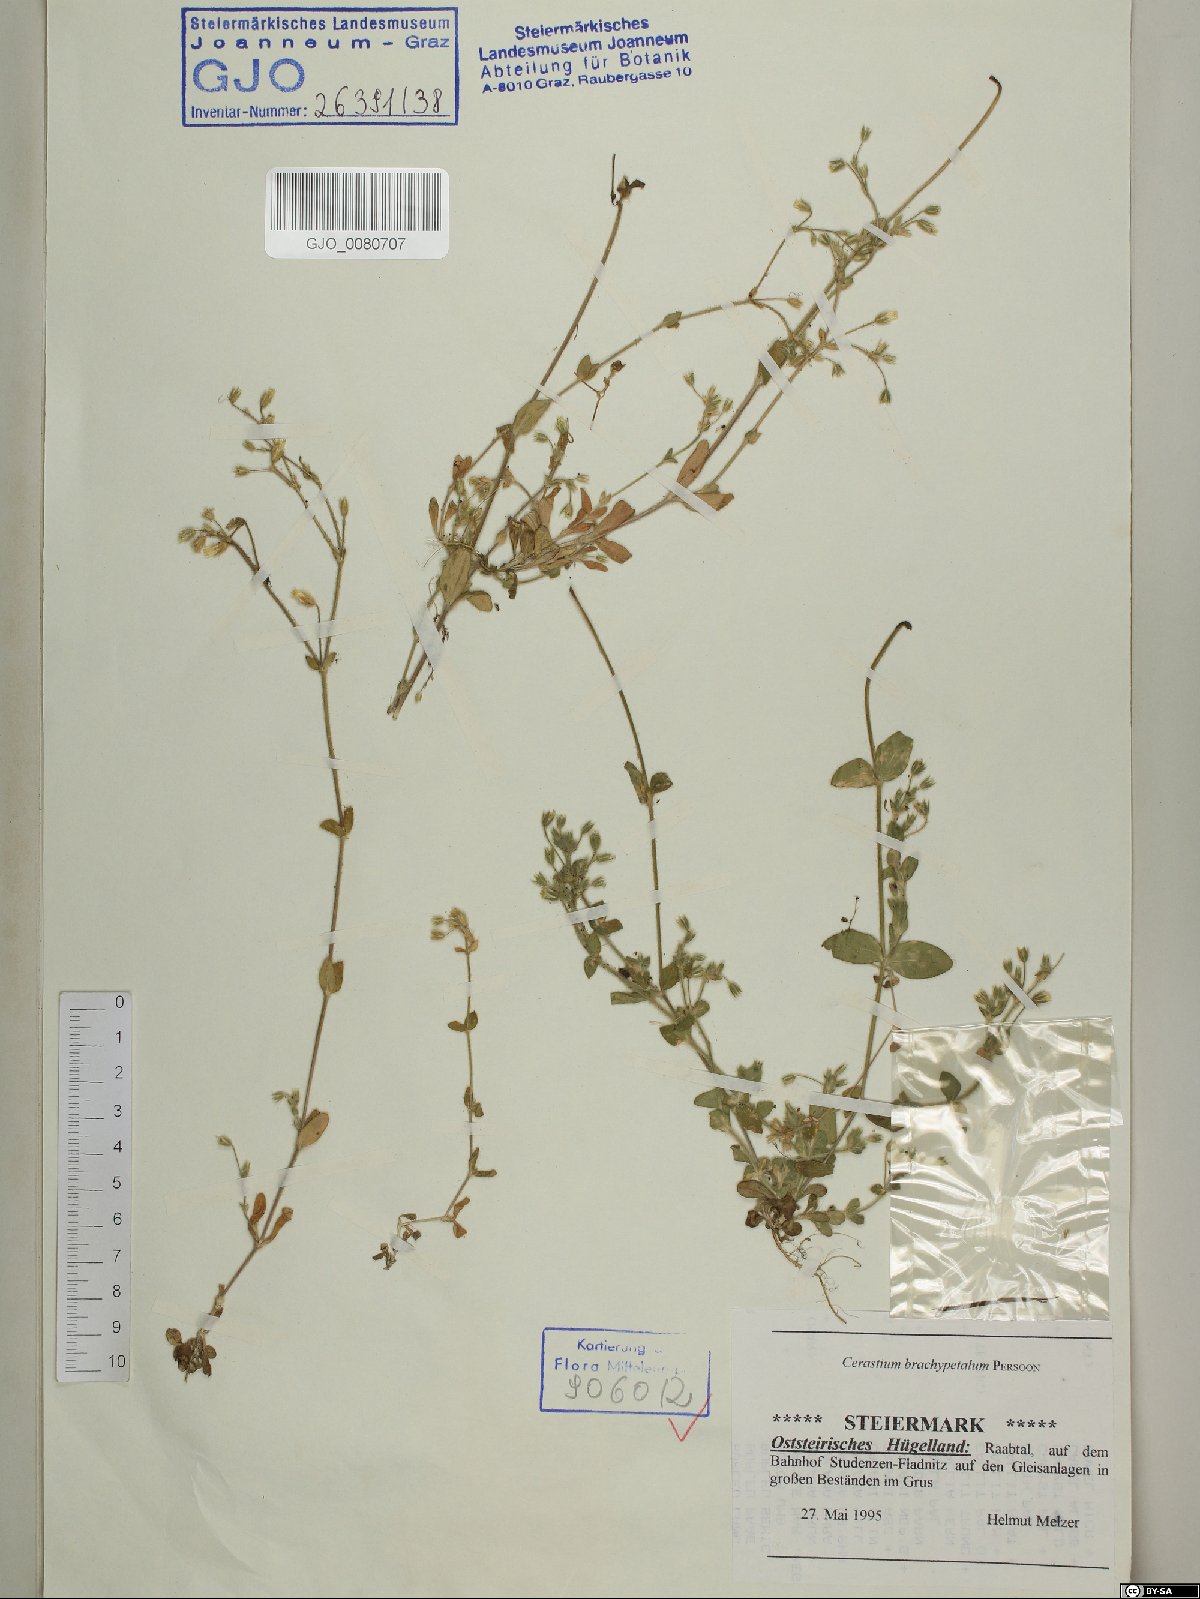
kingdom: Plantae
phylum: Tracheophyta
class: Magnoliopsida
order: Caryophyllales
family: Caryophyllaceae
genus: Cerastium
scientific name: Cerastium brachypetalum
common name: Grey mouse-ear
